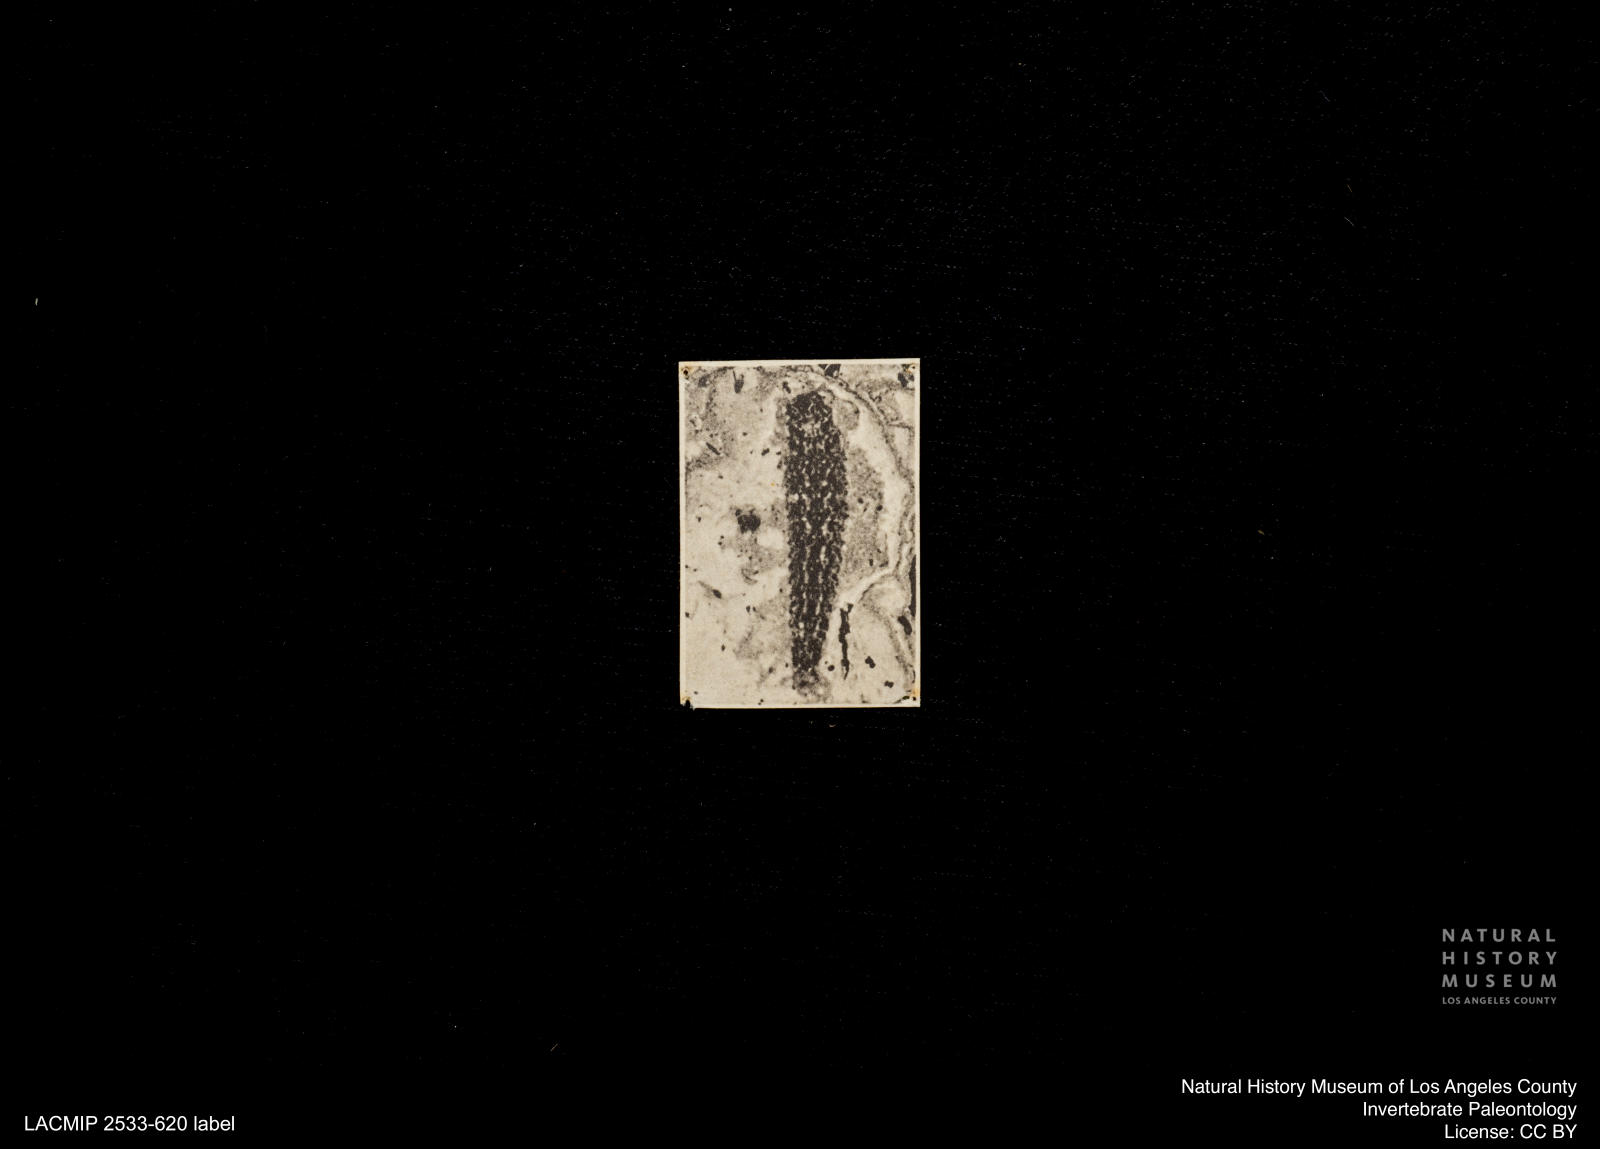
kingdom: Animalia
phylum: Arthropoda
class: Insecta
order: Diptera
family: Stratiomyidae
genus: Odontomyia
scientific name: Odontomyia
